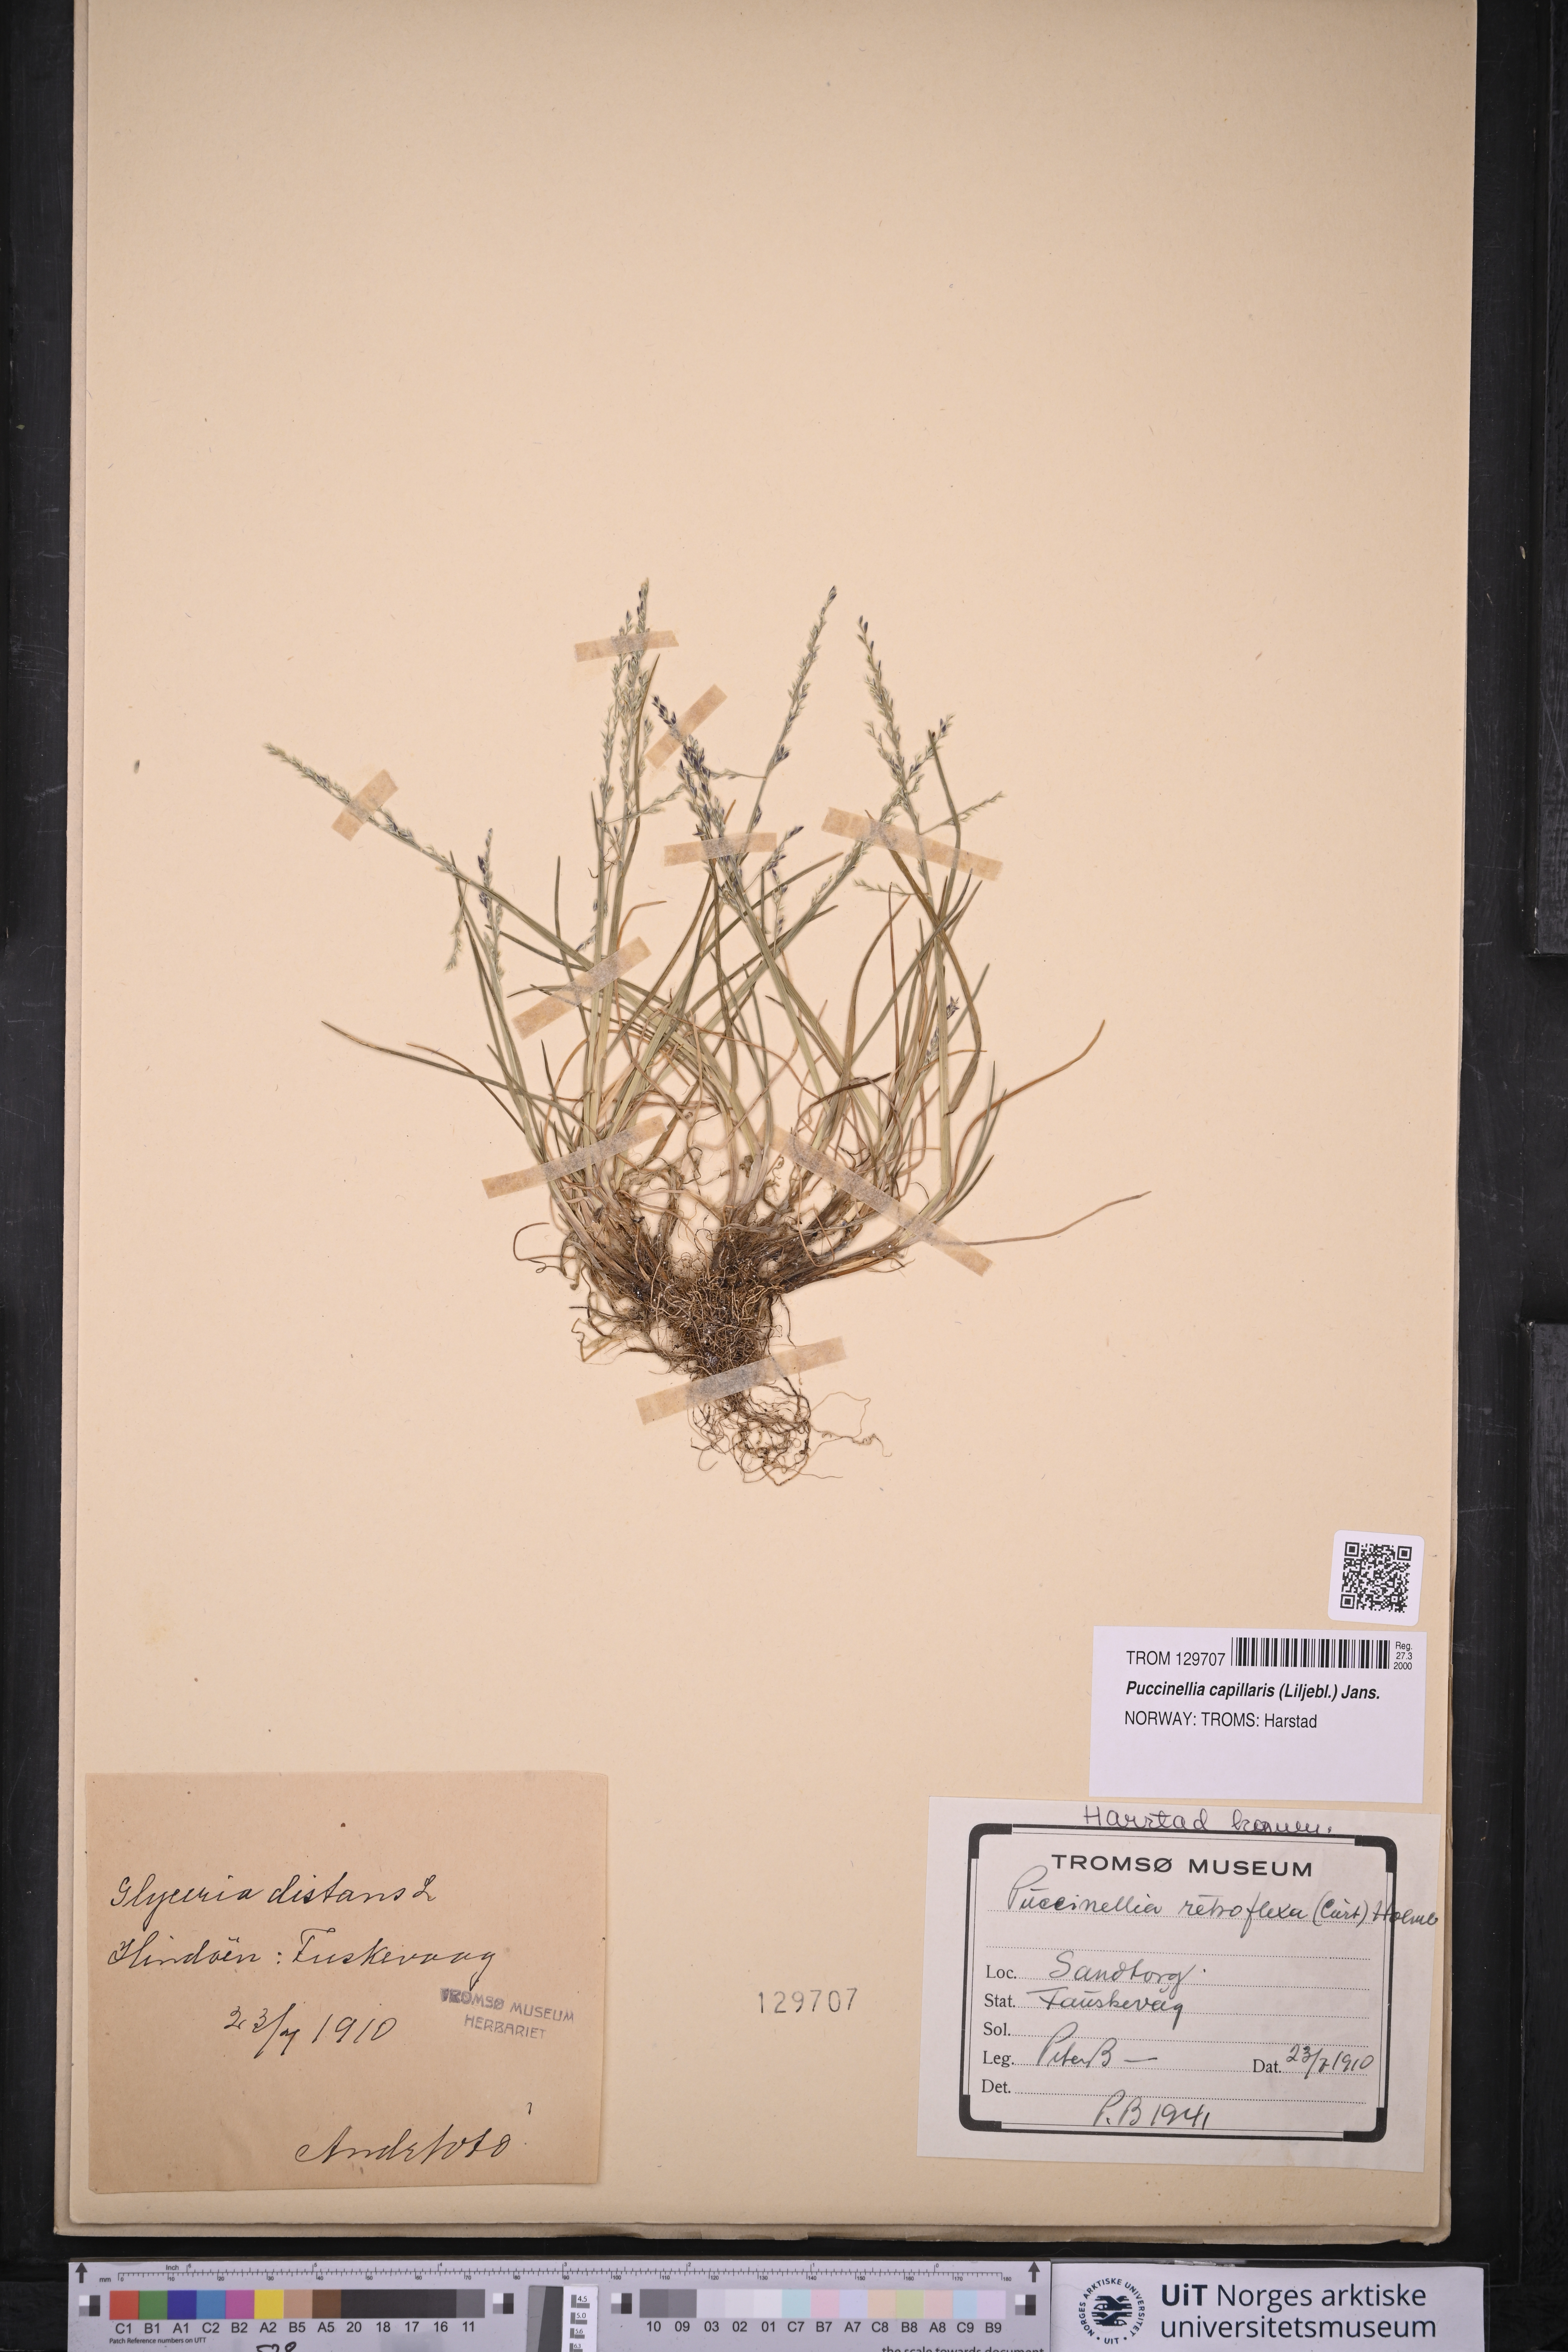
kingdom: Plantae
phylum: Tracheophyta
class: Liliopsida
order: Poales
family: Poaceae
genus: Puccinellia
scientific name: Puccinellia distans
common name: Weeping alkaligrass
